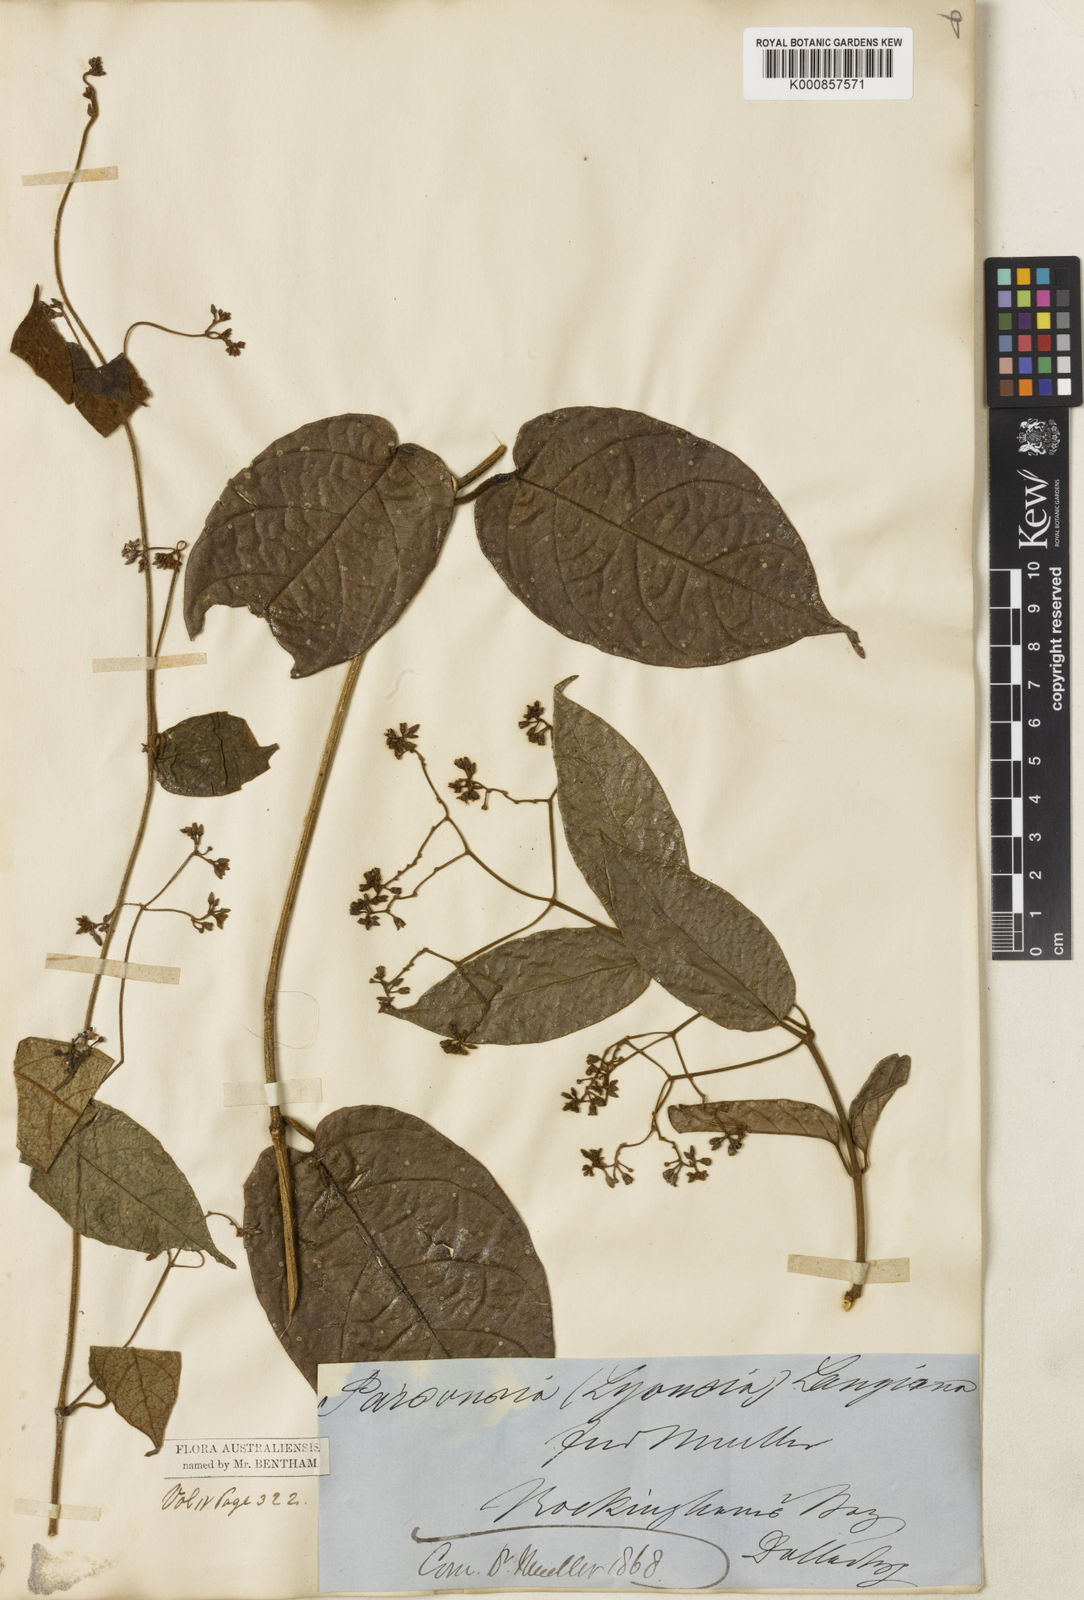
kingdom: Plantae
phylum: Tracheophyta
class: Magnoliopsida
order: Gentianales
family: Apocynaceae
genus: Parsonsia
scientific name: Parsonsia langiana
